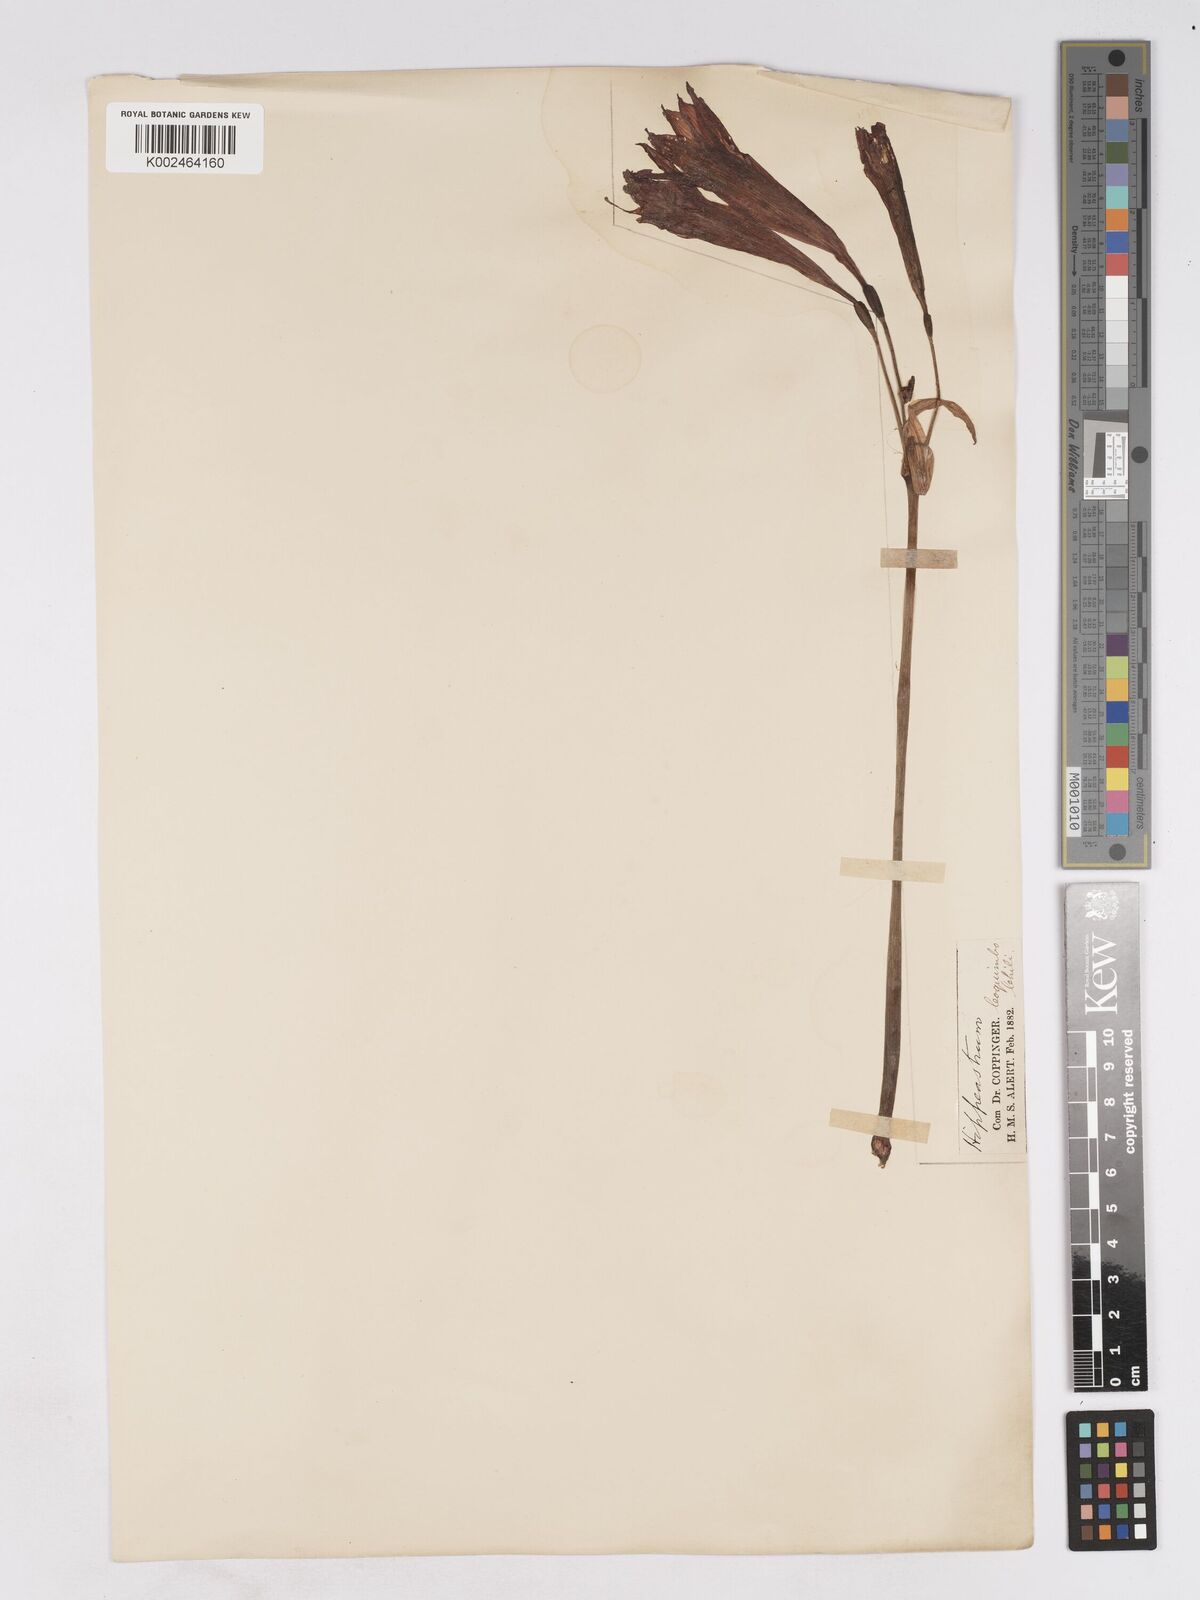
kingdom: Plantae
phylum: Tracheophyta
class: Liliopsida
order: Asparagales
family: Amaryllidaceae
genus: Zephyranthes
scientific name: Zephyranthes phycelloides
